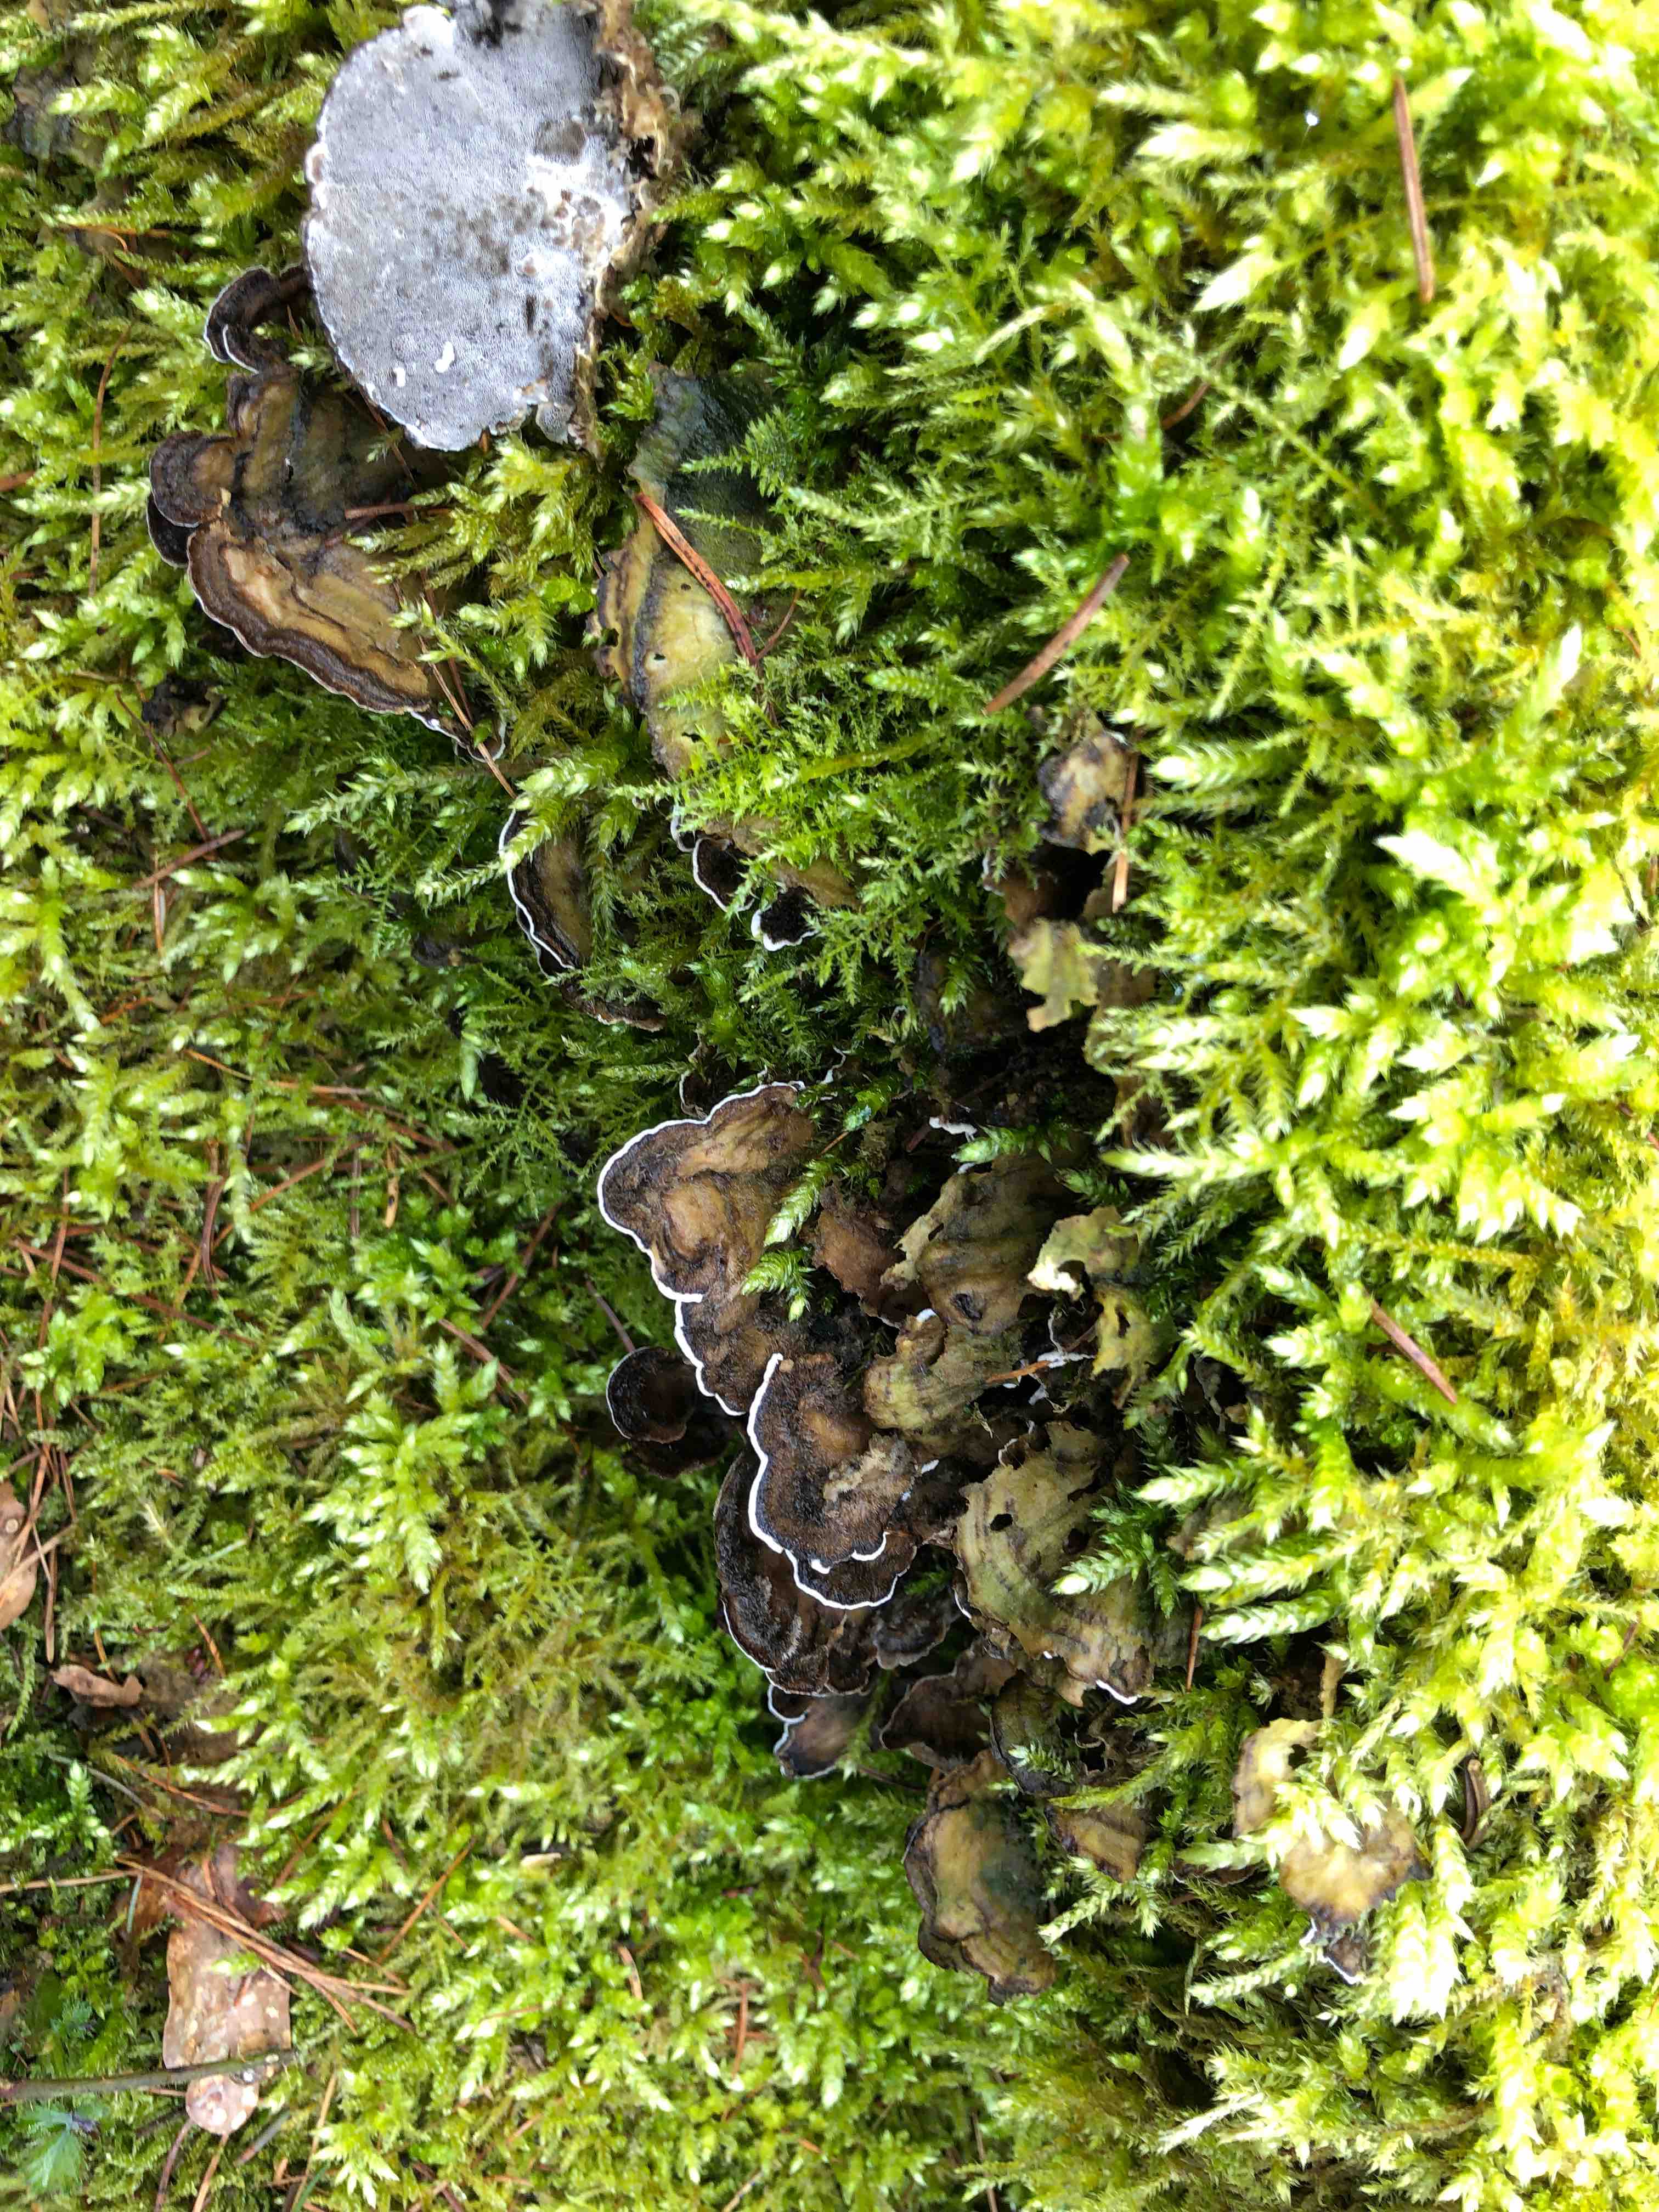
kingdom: Fungi
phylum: Basidiomycota
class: Agaricomycetes
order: Polyporales
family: Phanerochaetaceae
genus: Bjerkandera
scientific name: Bjerkandera adusta
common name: sveden sodporesvamp
